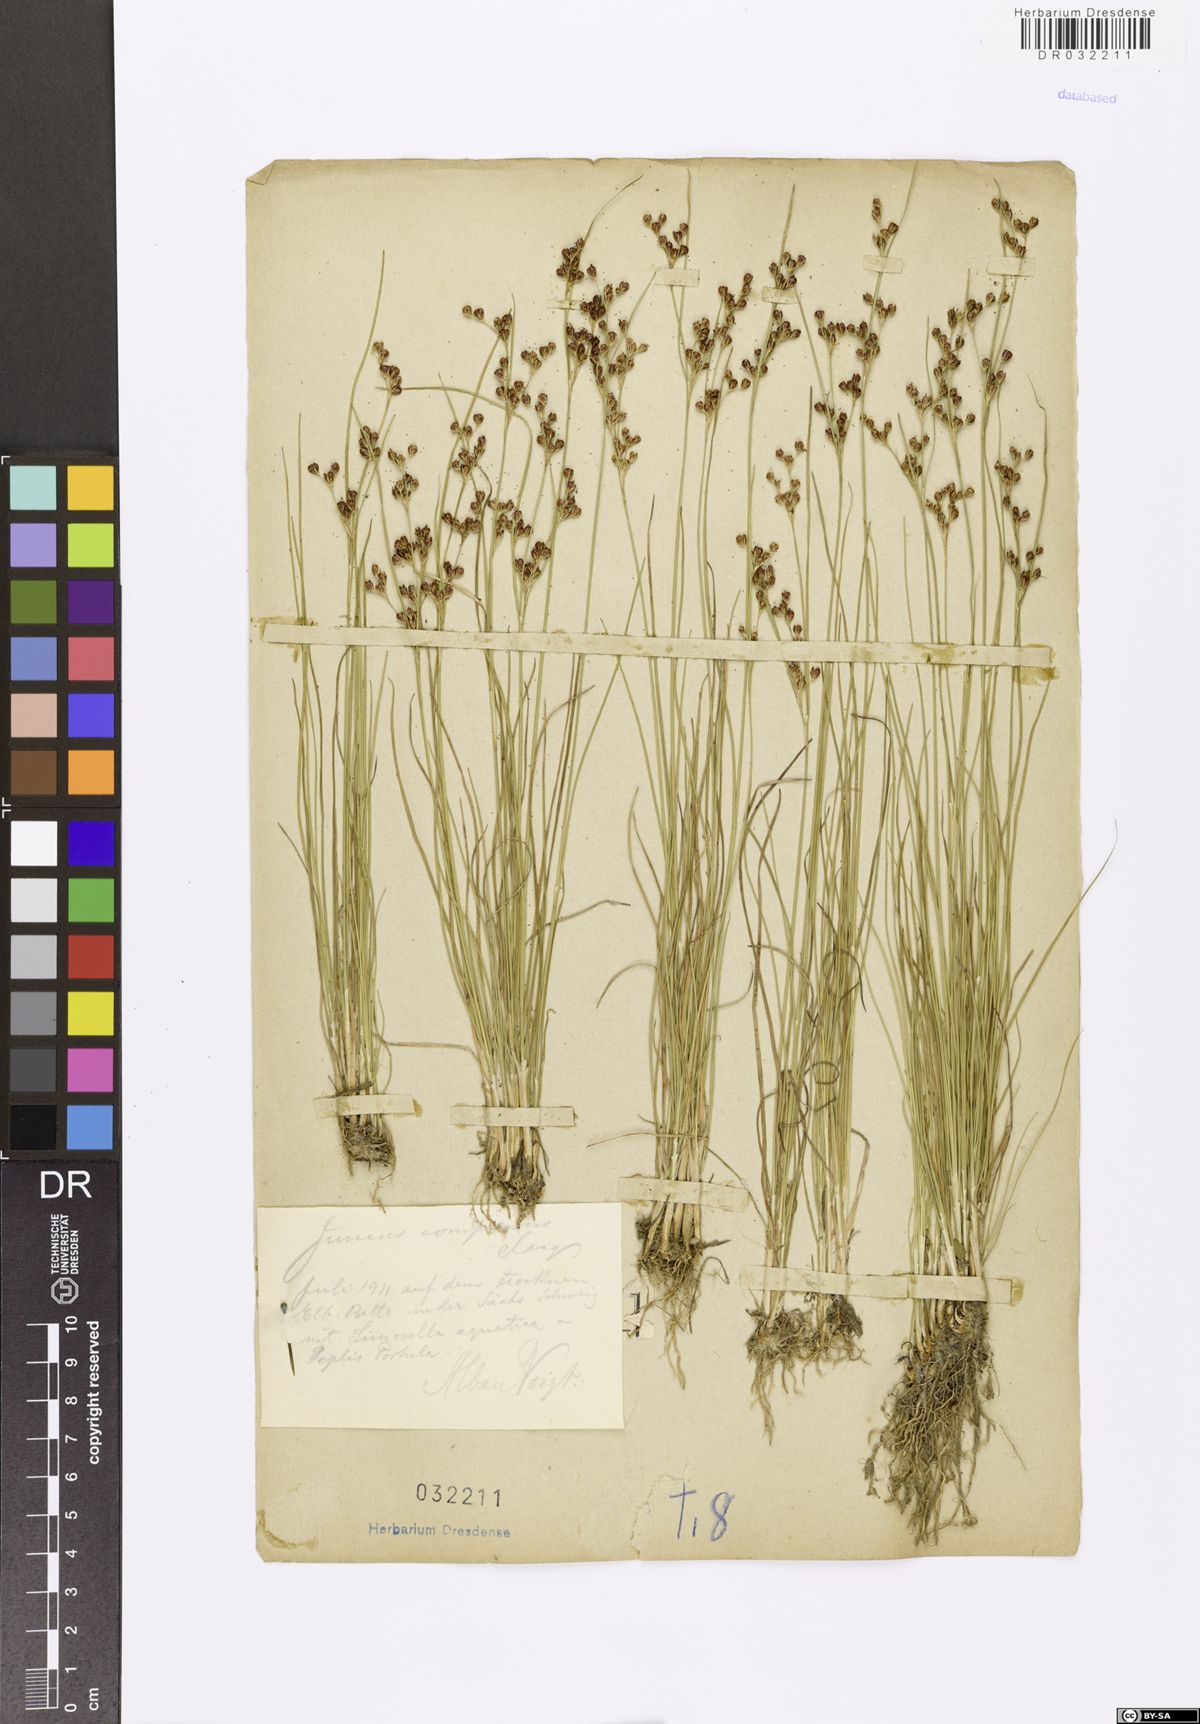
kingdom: Plantae
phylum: Tracheophyta
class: Liliopsida
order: Poales
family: Juncaceae
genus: Juncus
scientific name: Juncus compressus
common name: Round-fruited rush
